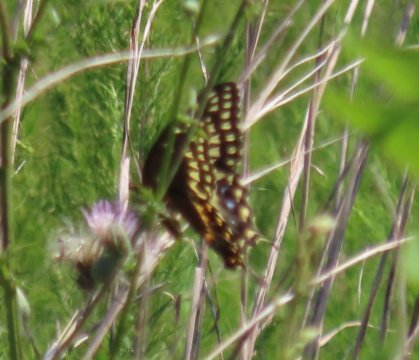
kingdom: Animalia
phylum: Arthropoda
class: Insecta
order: Lepidoptera
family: Papilionidae
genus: Pterourus
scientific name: Pterourus palamedes
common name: Palamedes Swallowtail
